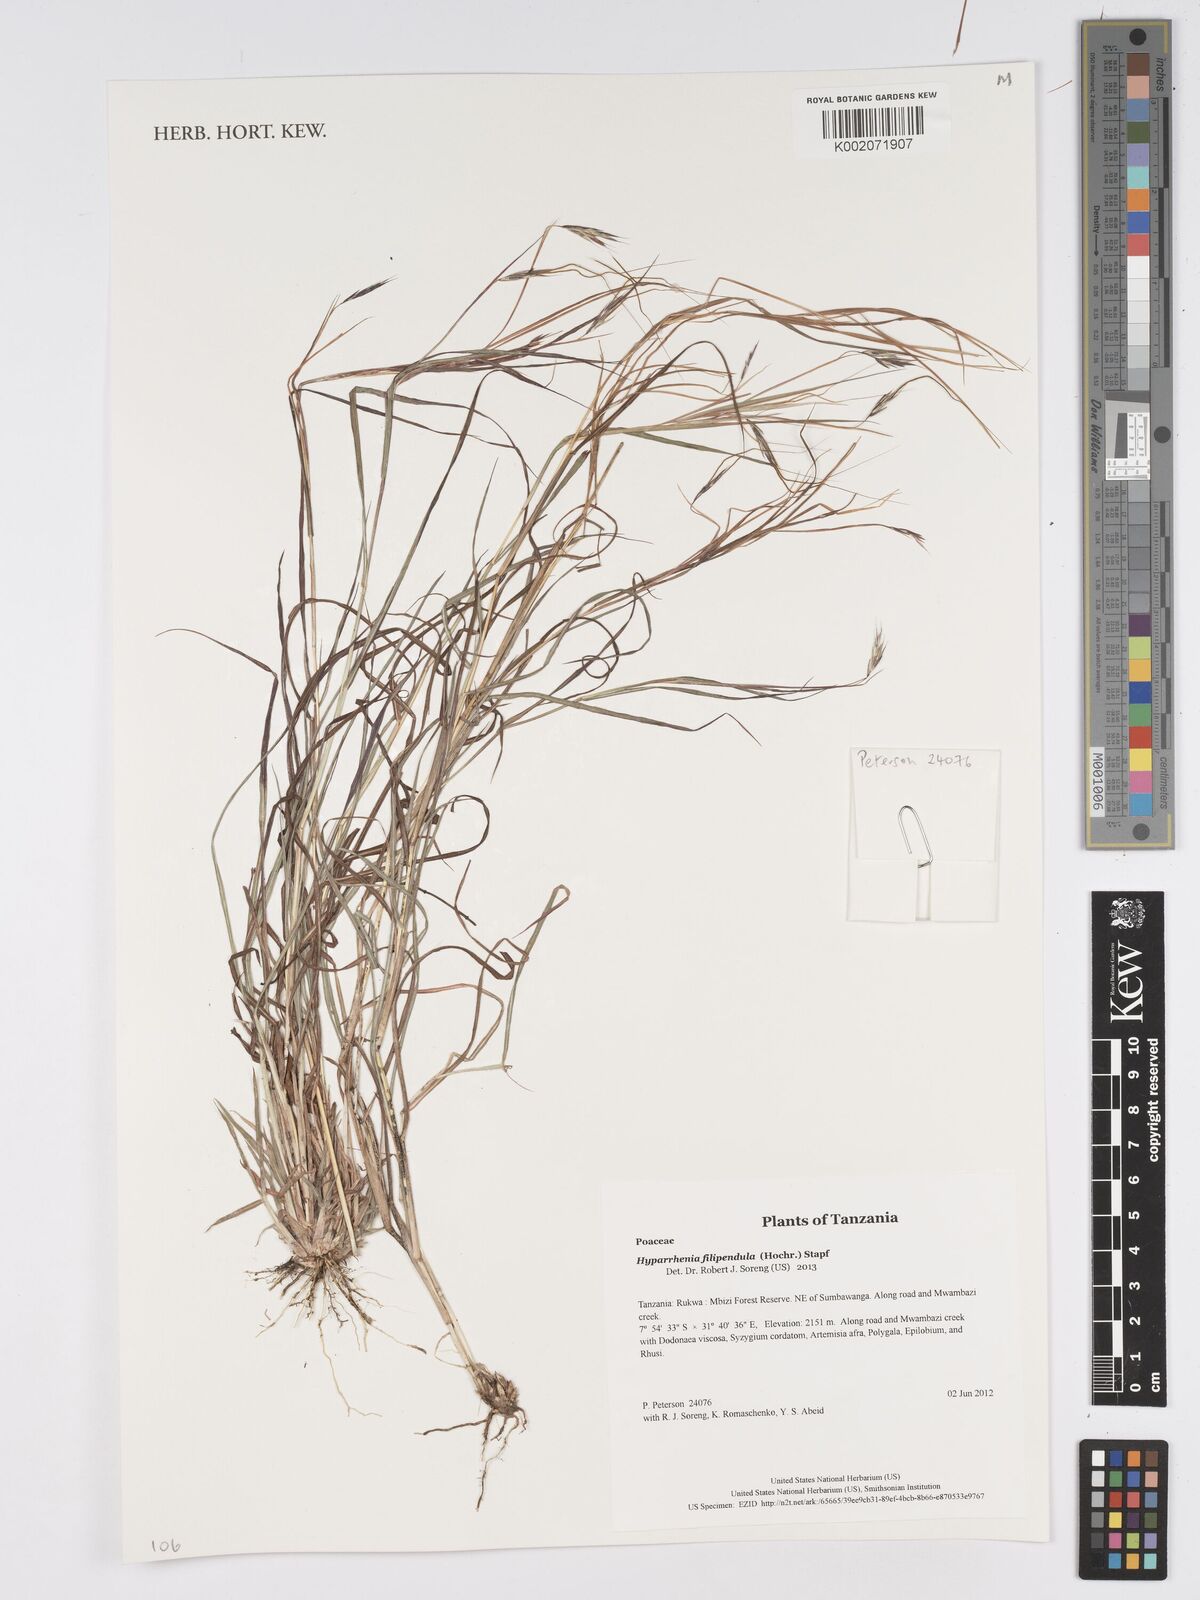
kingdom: Plantae
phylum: Tracheophyta
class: Liliopsida
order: Poales
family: Poaceae
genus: Hyparrhenia
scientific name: Hyparrhenia filipendula
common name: Tambookie grass
